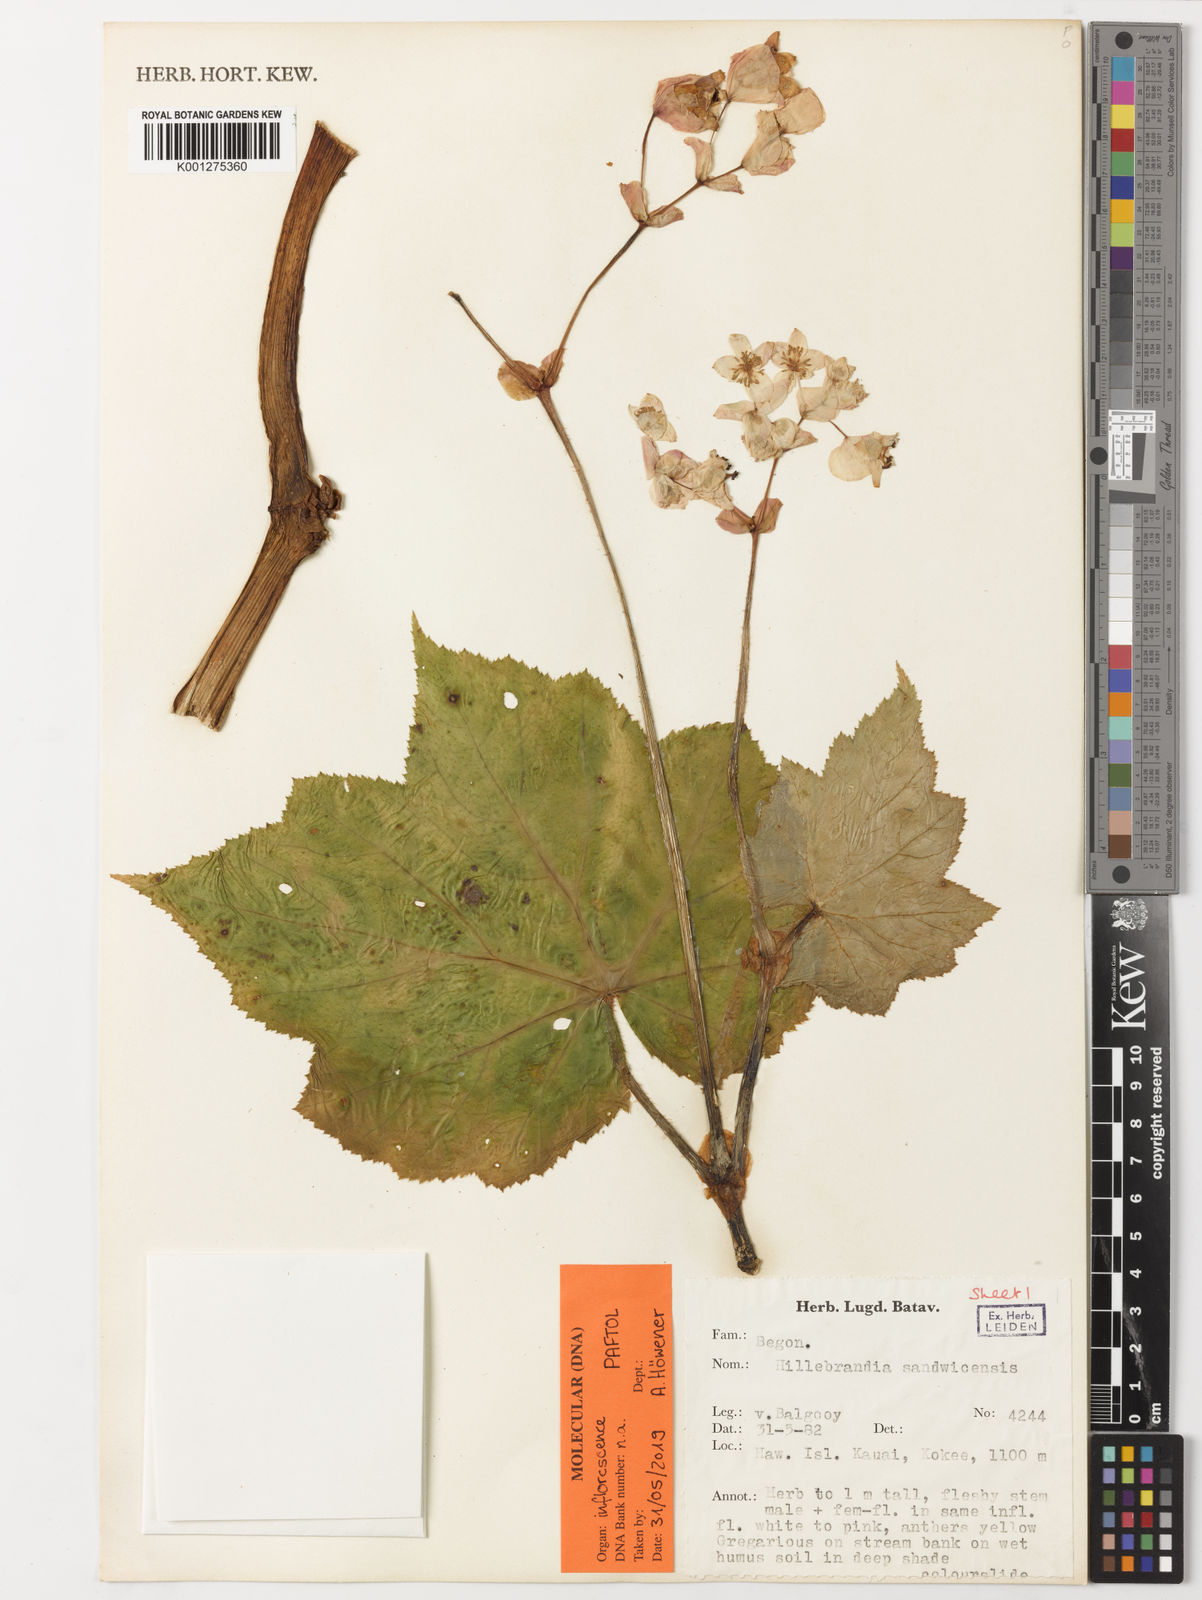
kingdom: Plantae
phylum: Tracheophyta
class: Magnoliopsida
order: Cucurbitales
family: Begoniaceae
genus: Hillebrandia
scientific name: Hillebrandia sandwicensis
